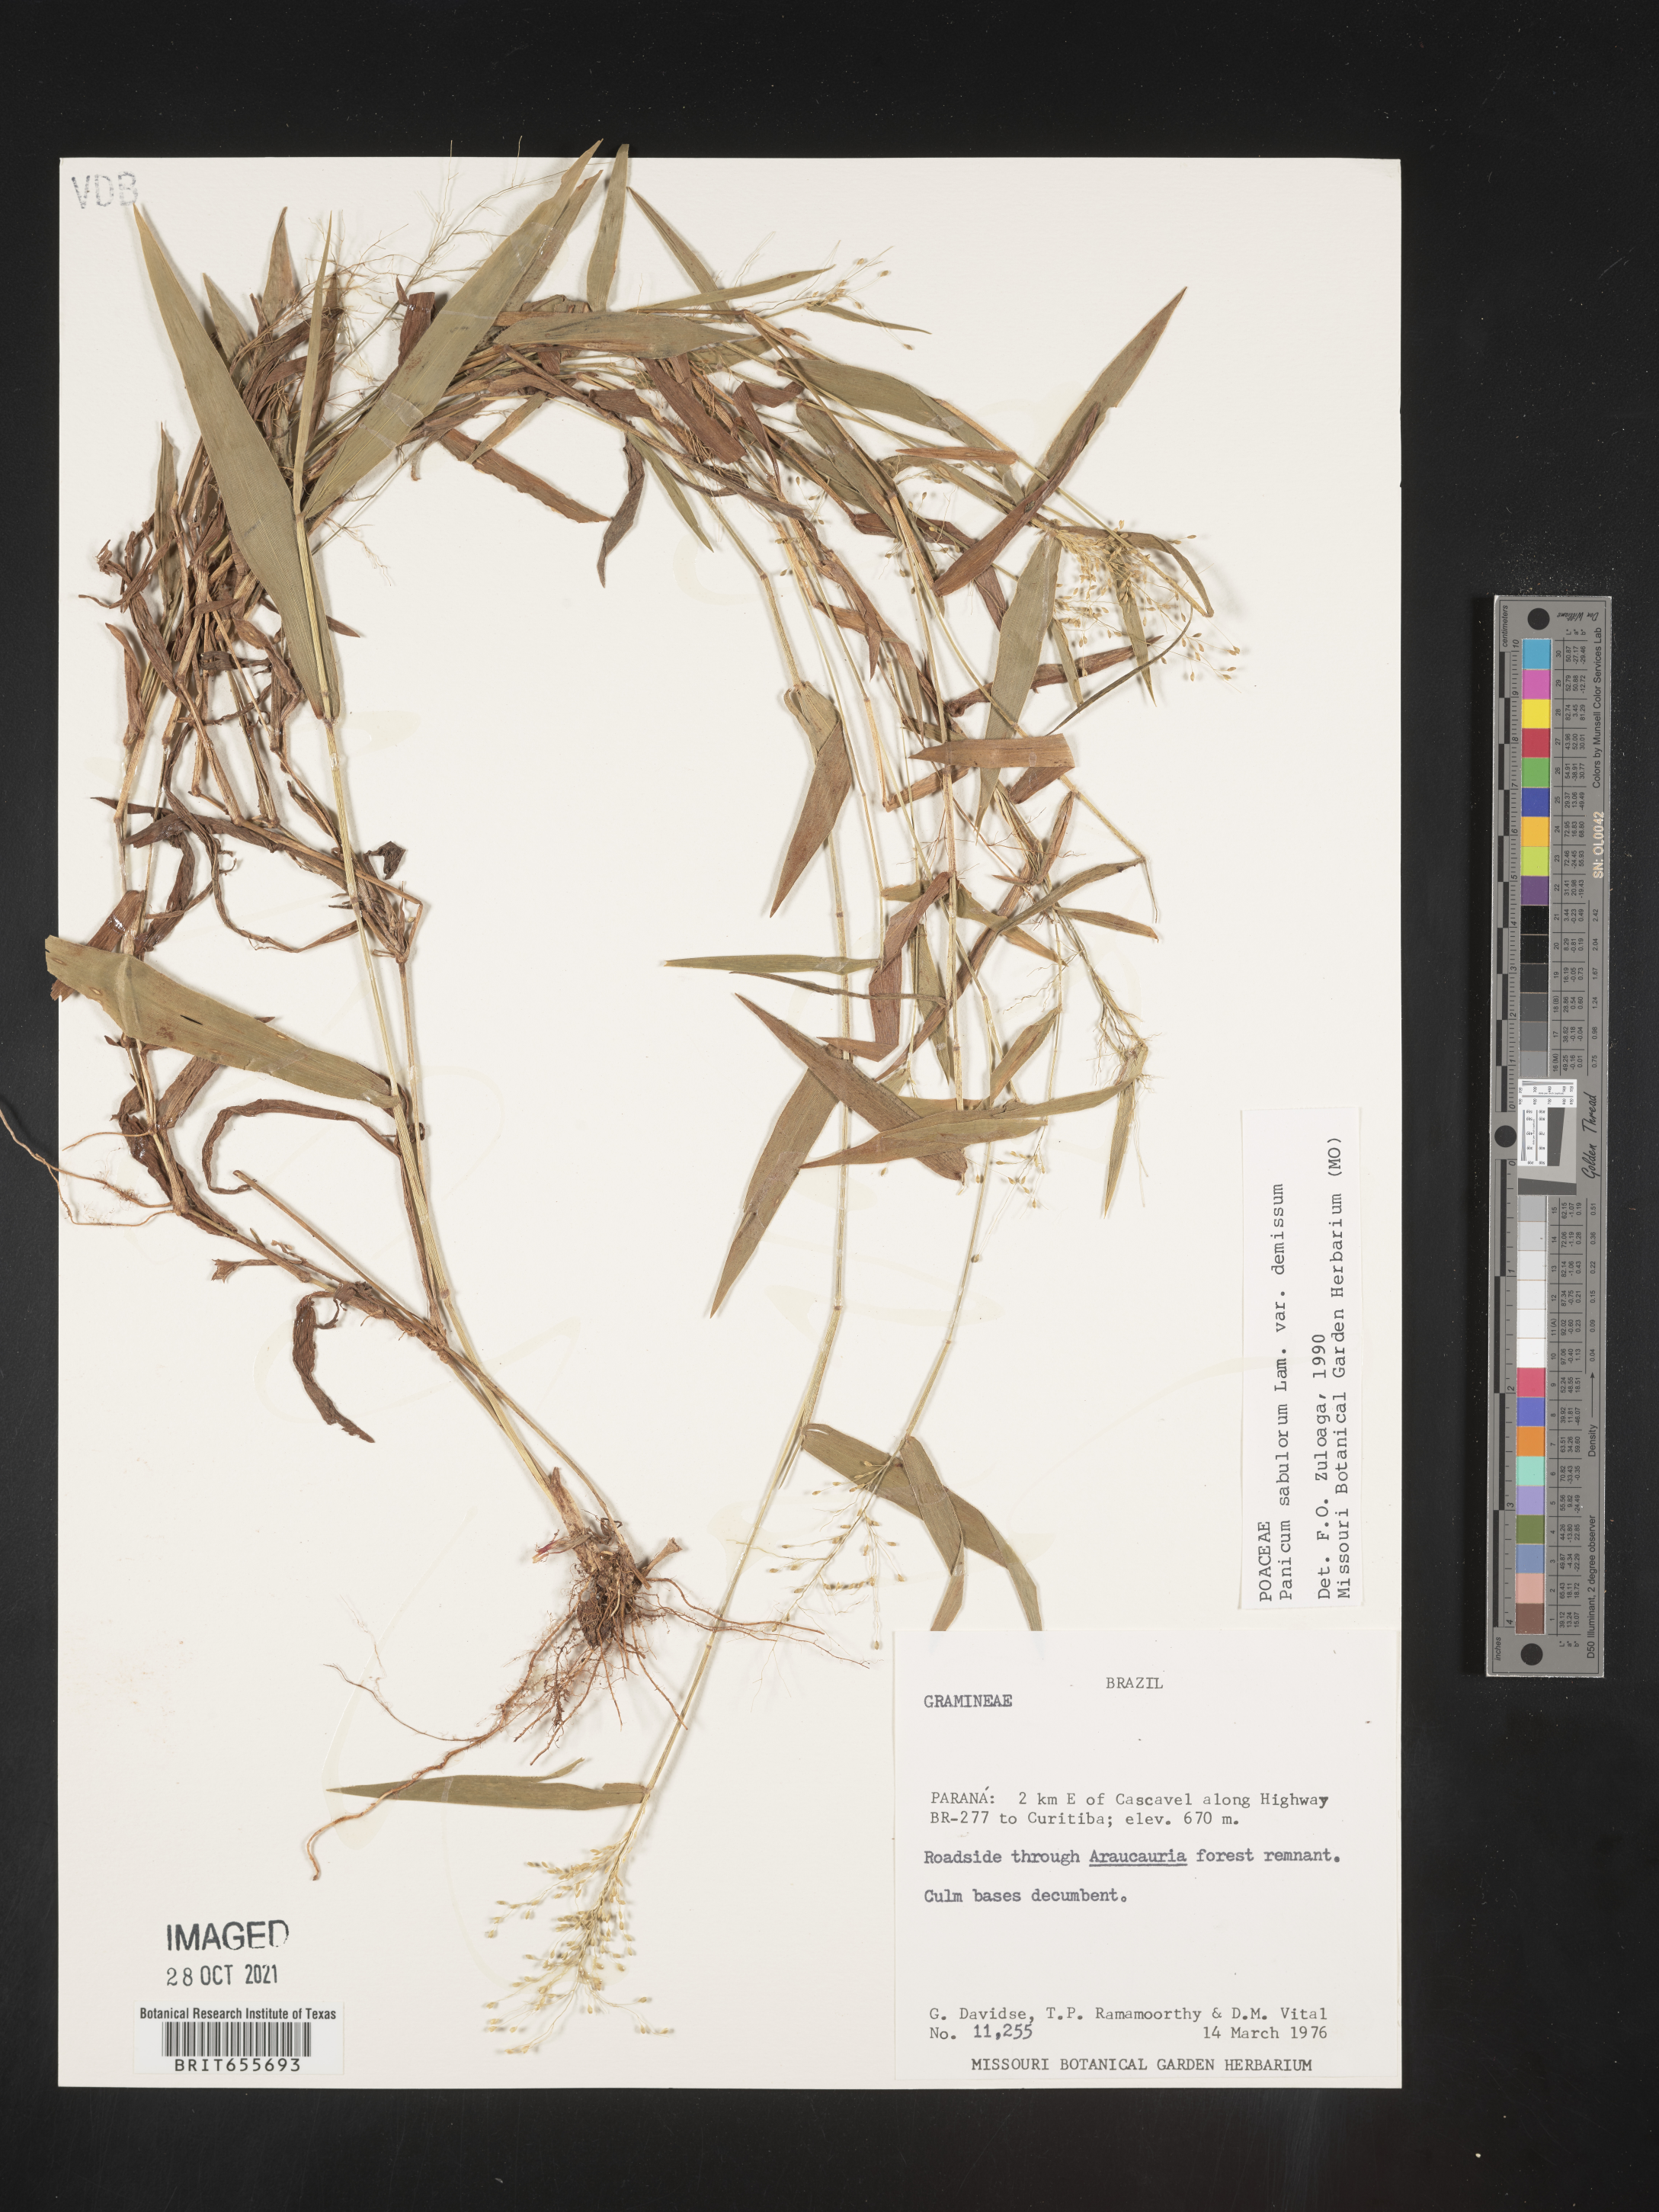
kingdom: Plantae
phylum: Tracheophyta
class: Liliopsida
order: Poales
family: Poaceae
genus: Panicum
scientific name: Panicum
